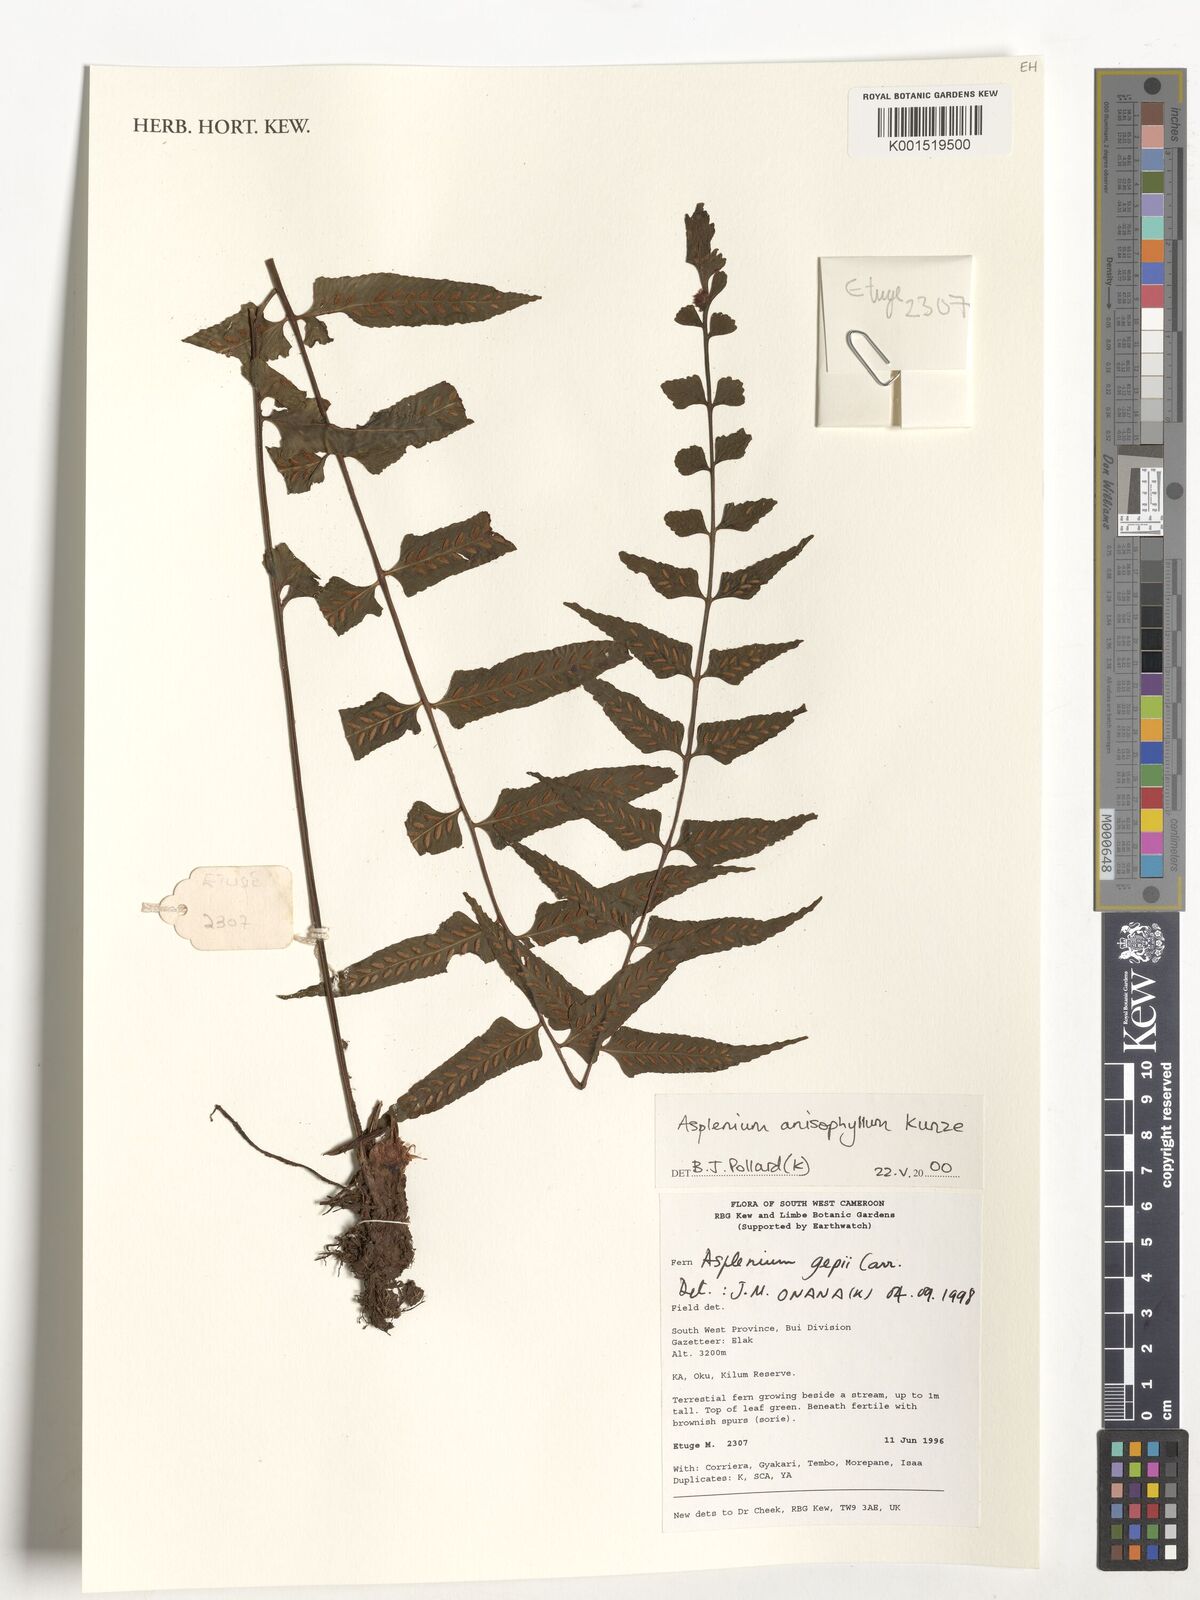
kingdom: Plantae
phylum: Tracheophyta
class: Polypodiopsida
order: Polypodiales
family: Aspleniaceae
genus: Asplenium
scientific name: Asplenium anisophyllum
